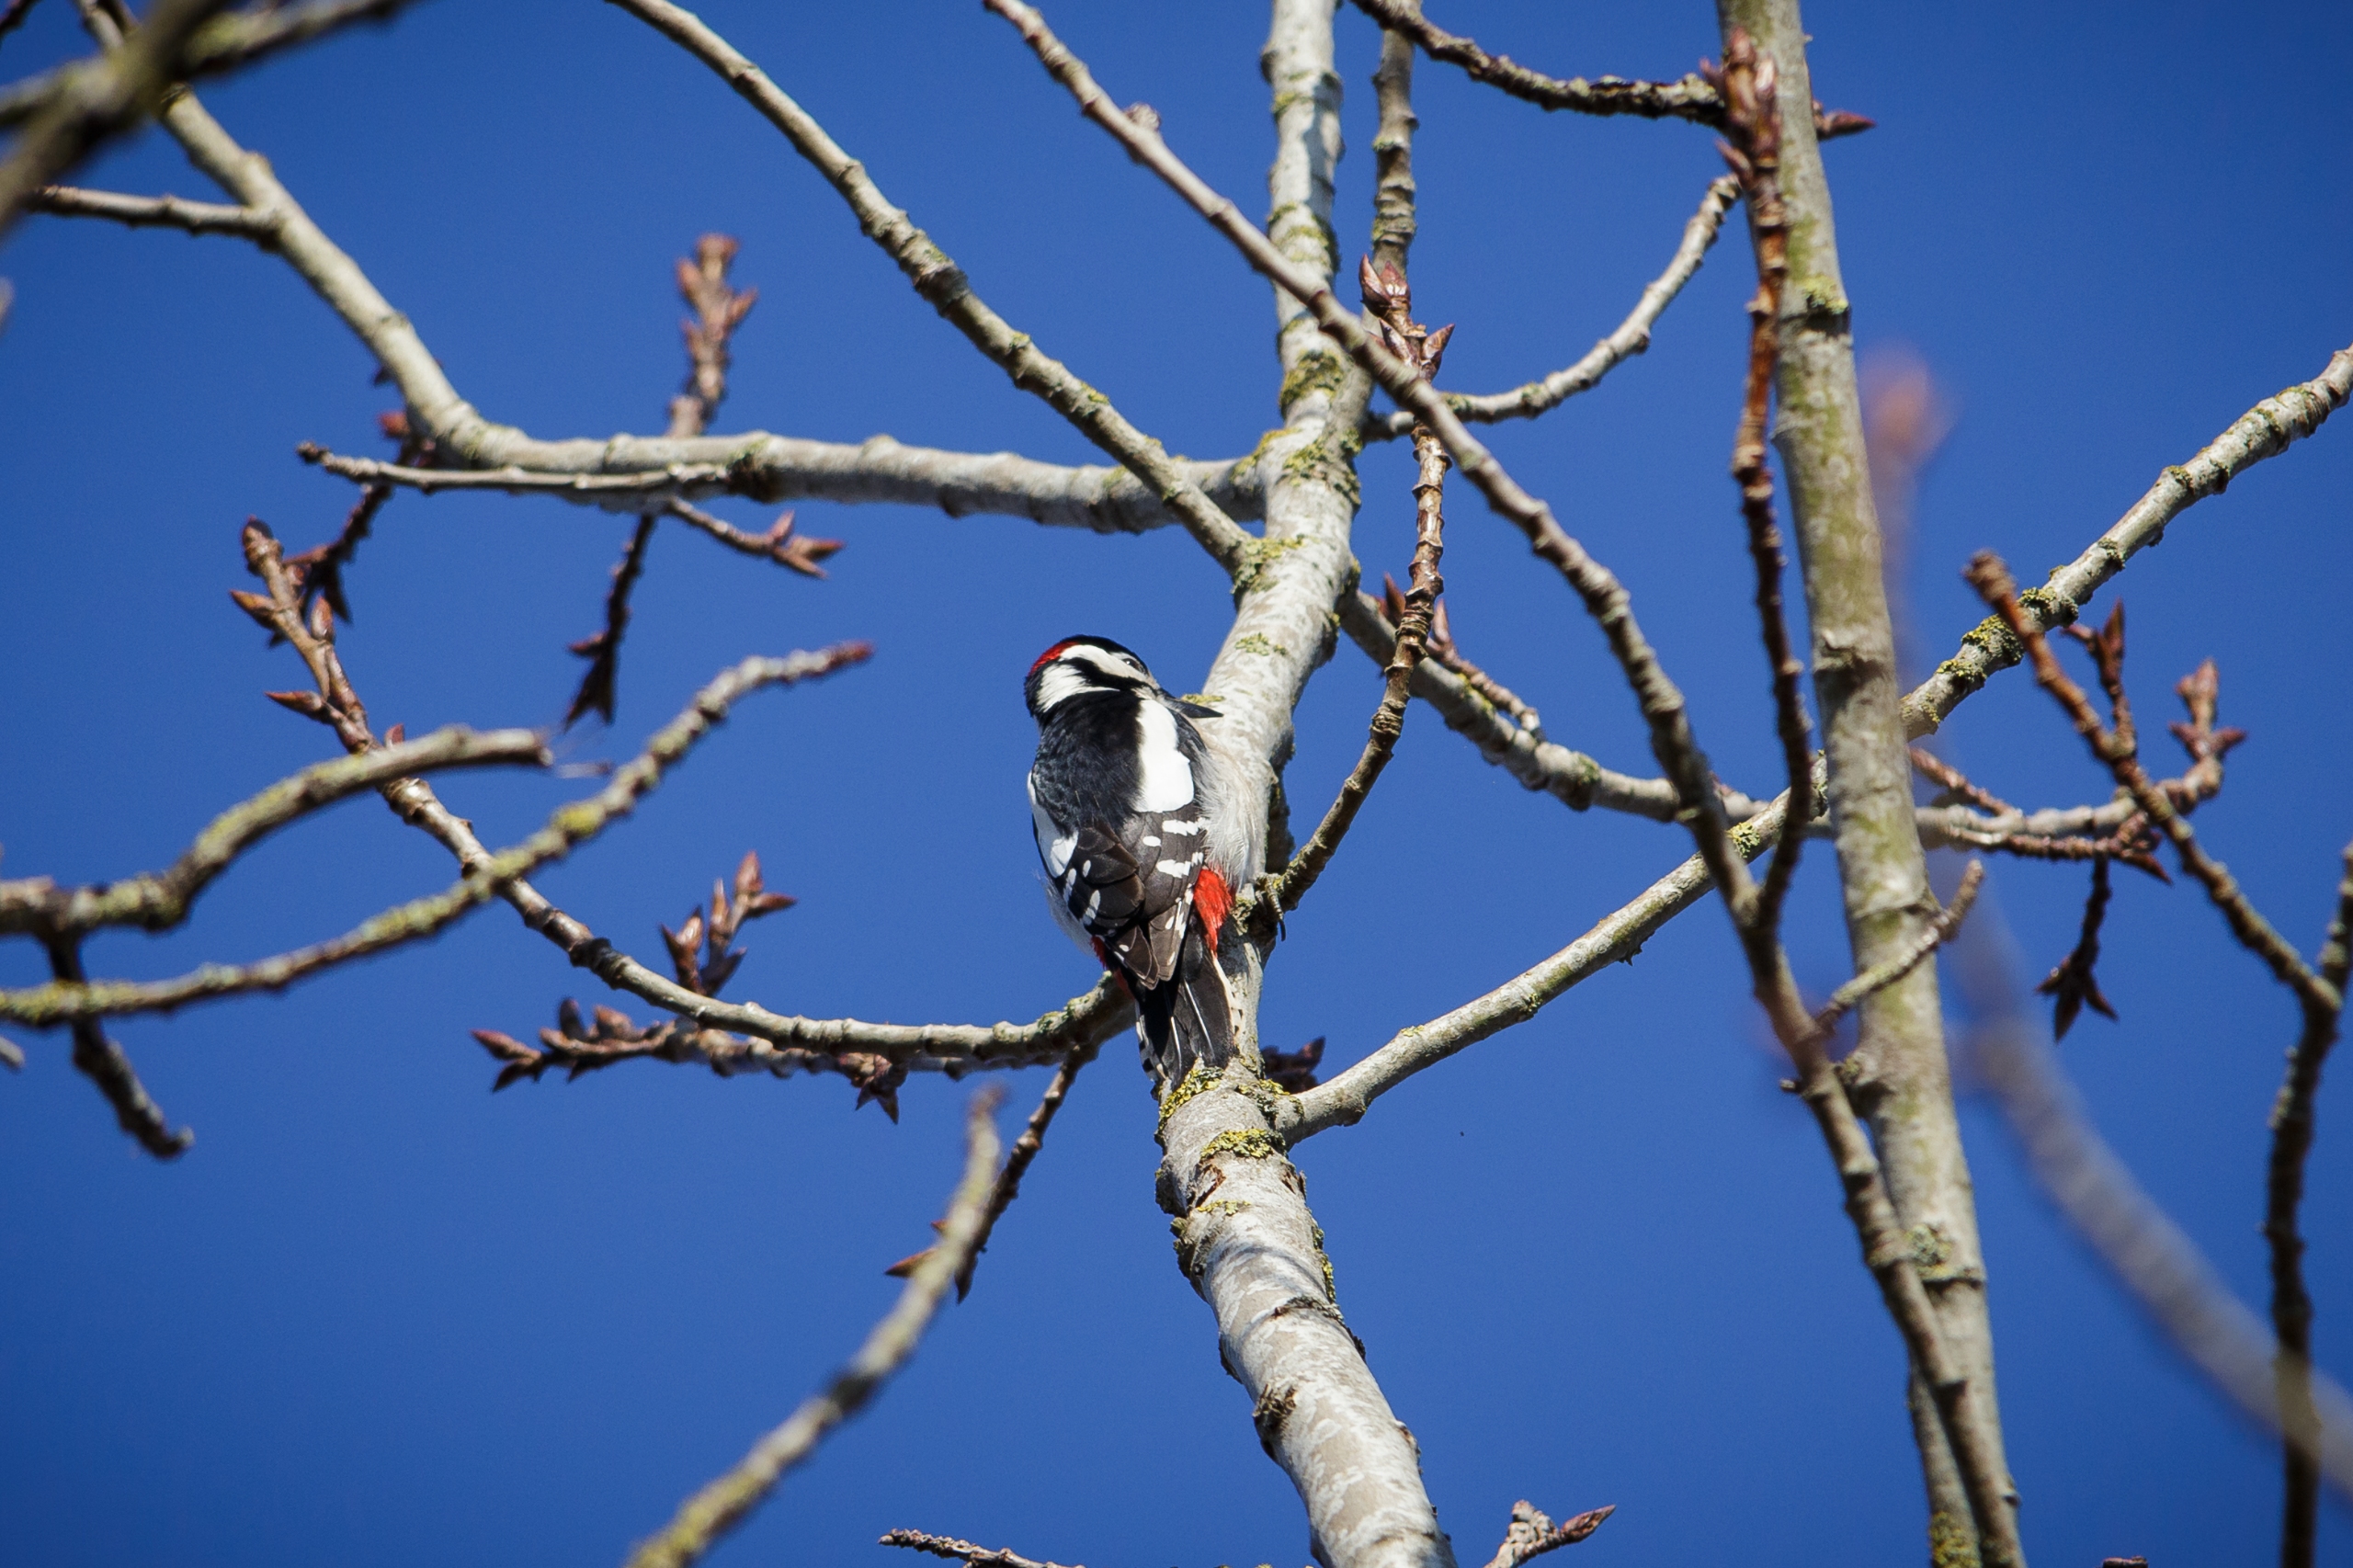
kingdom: Animalia
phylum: Chordata
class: Aves
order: Piciformes
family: Picidae
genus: Dendrocopos
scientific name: Dendrocopos major
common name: Stor flagspætte
